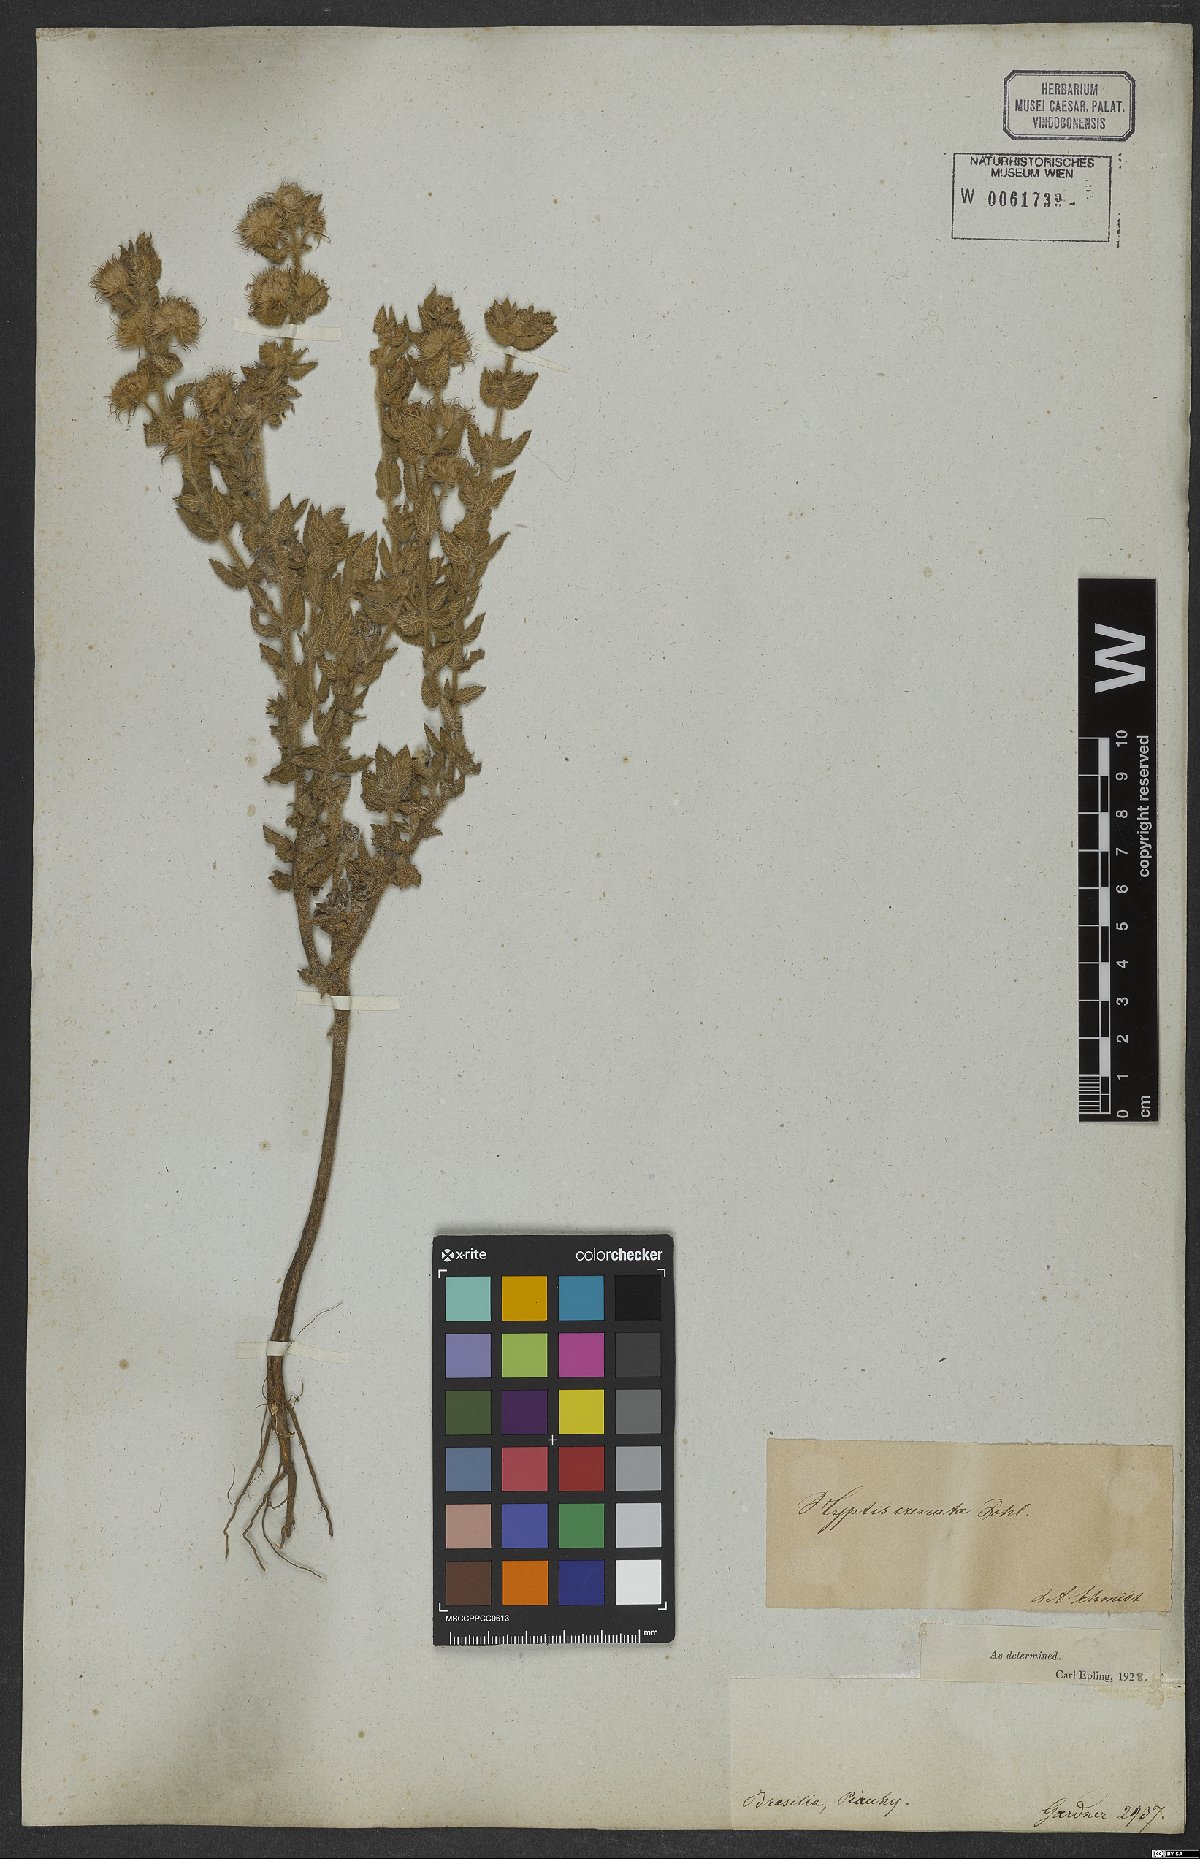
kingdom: Plantae
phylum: Tracheophyta
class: Magnoliopsida
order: Lamiales
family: Lamiaceae
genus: Hyptis
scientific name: Hyptis crenata
